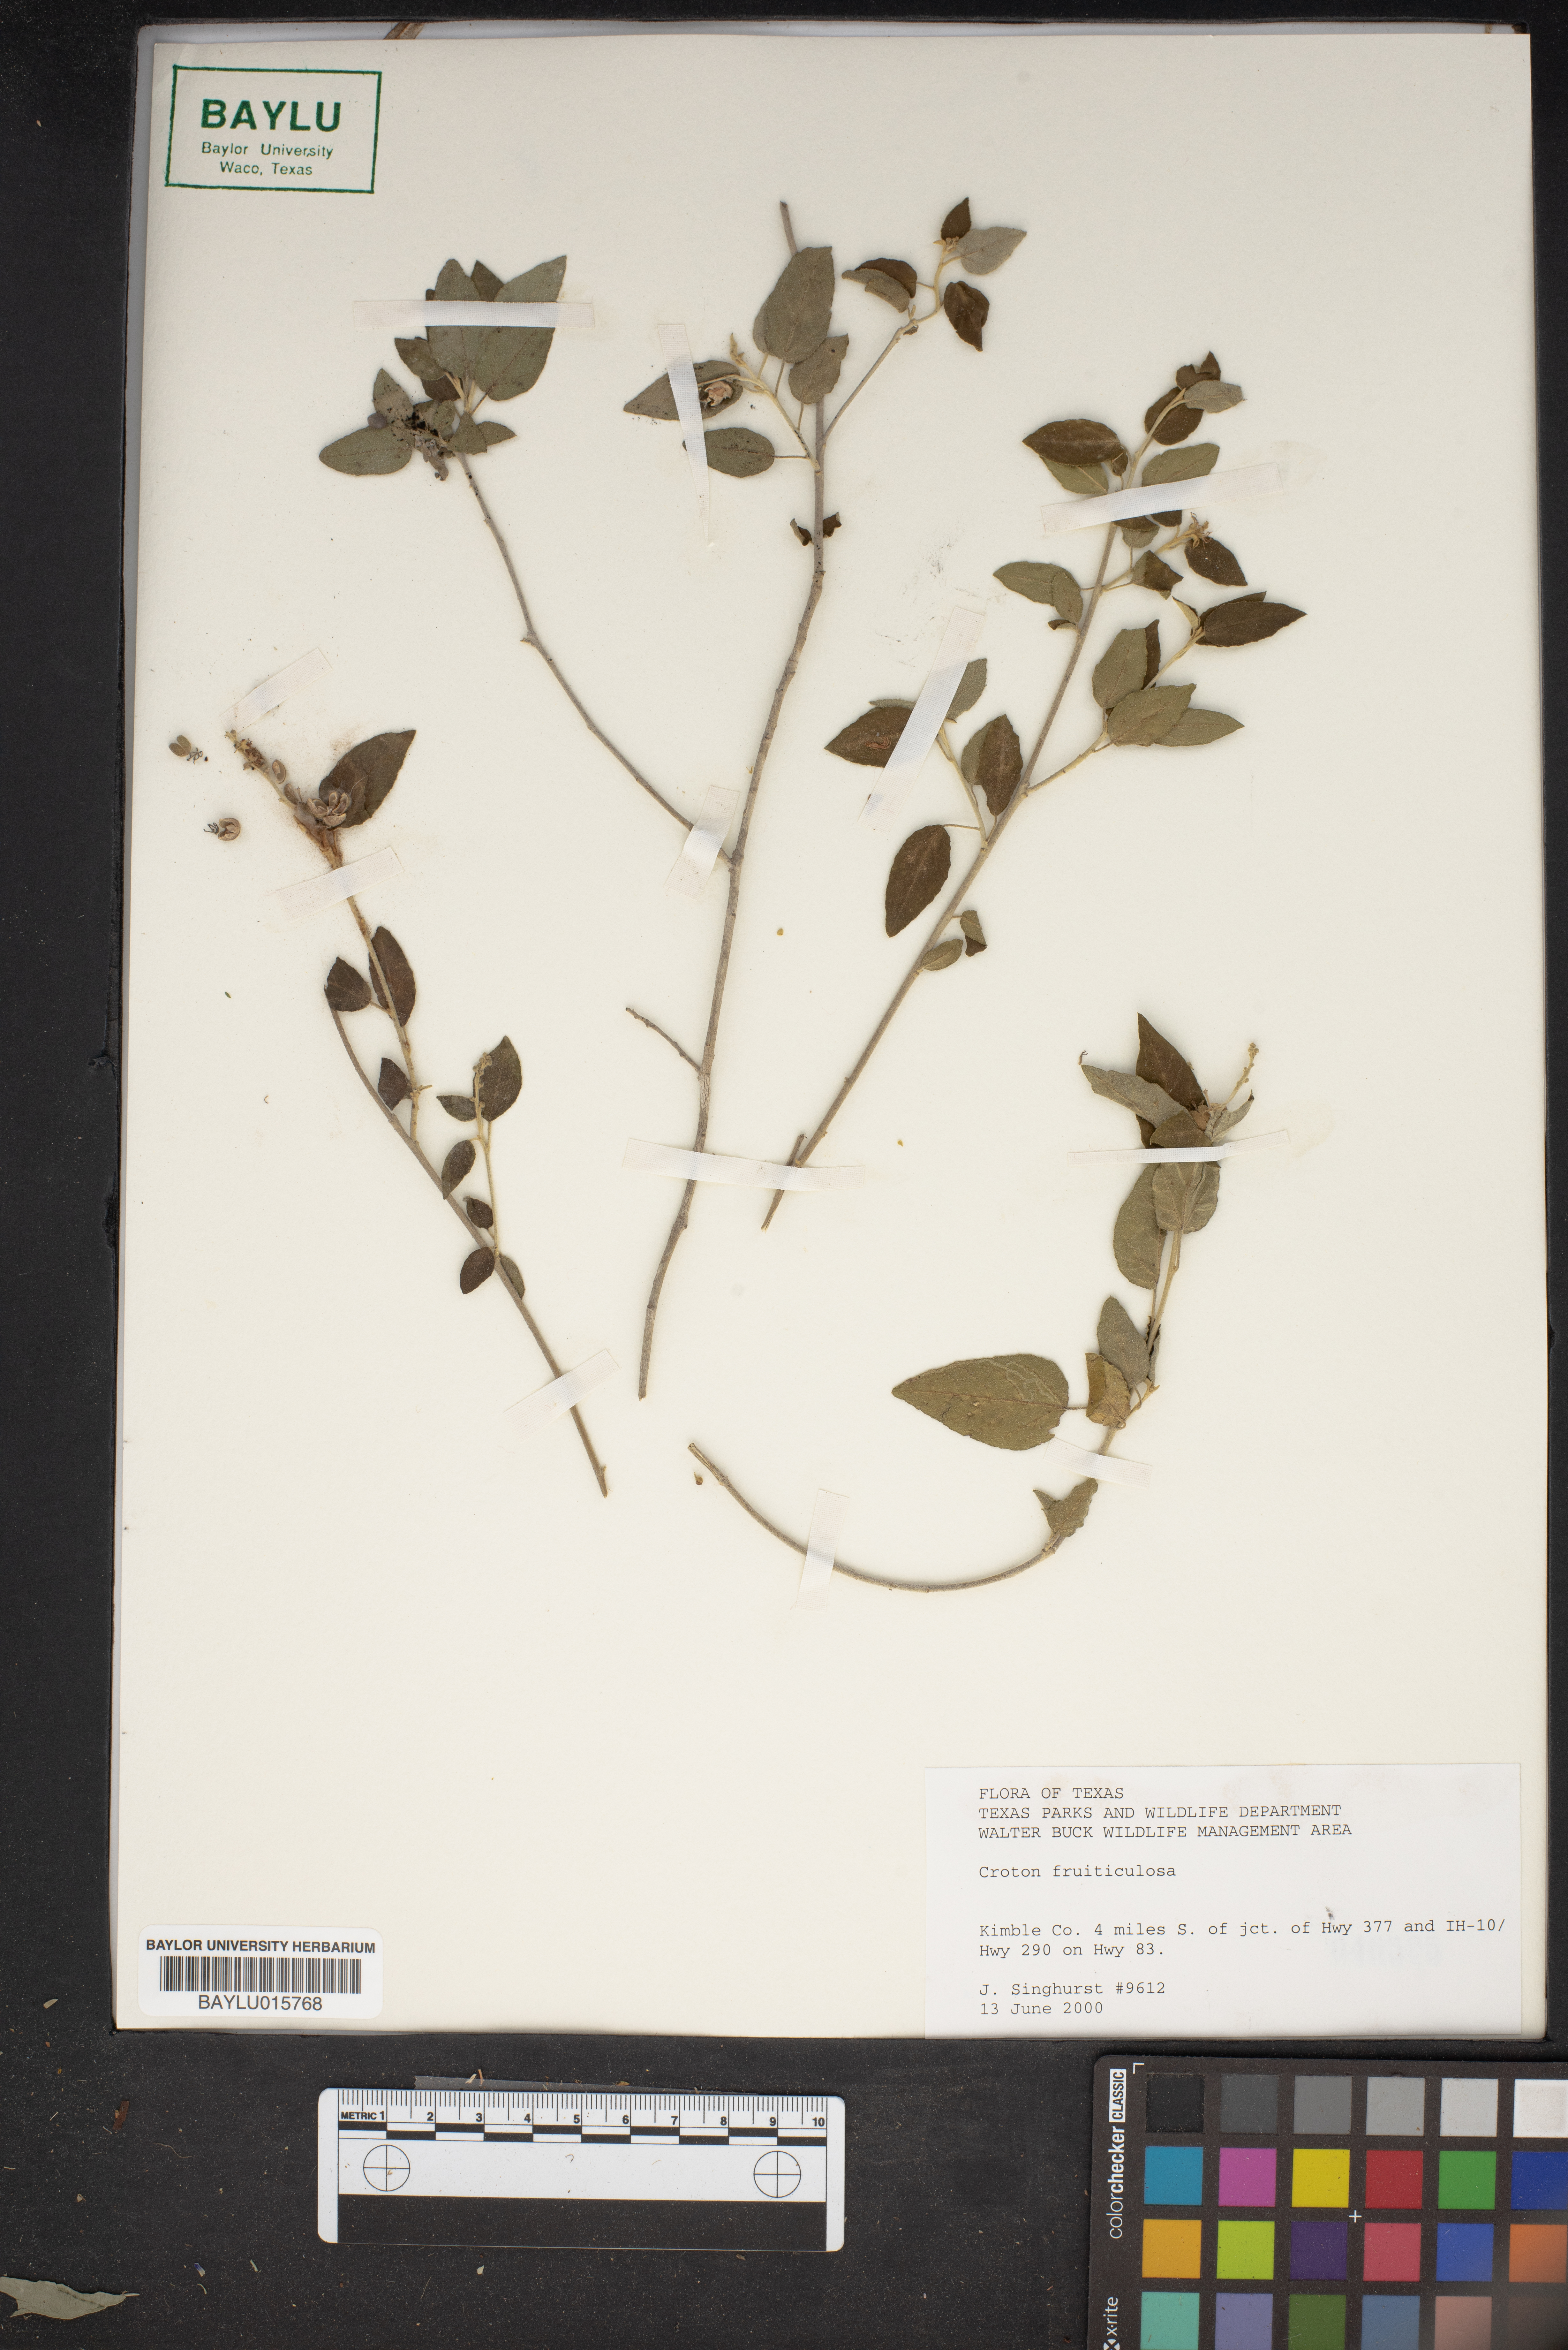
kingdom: Plantae
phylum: Tracheophyta
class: Magnoliopsida
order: Malpighiales
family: Euphorbiaceae
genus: Croton
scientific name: Croton fruticulosus
